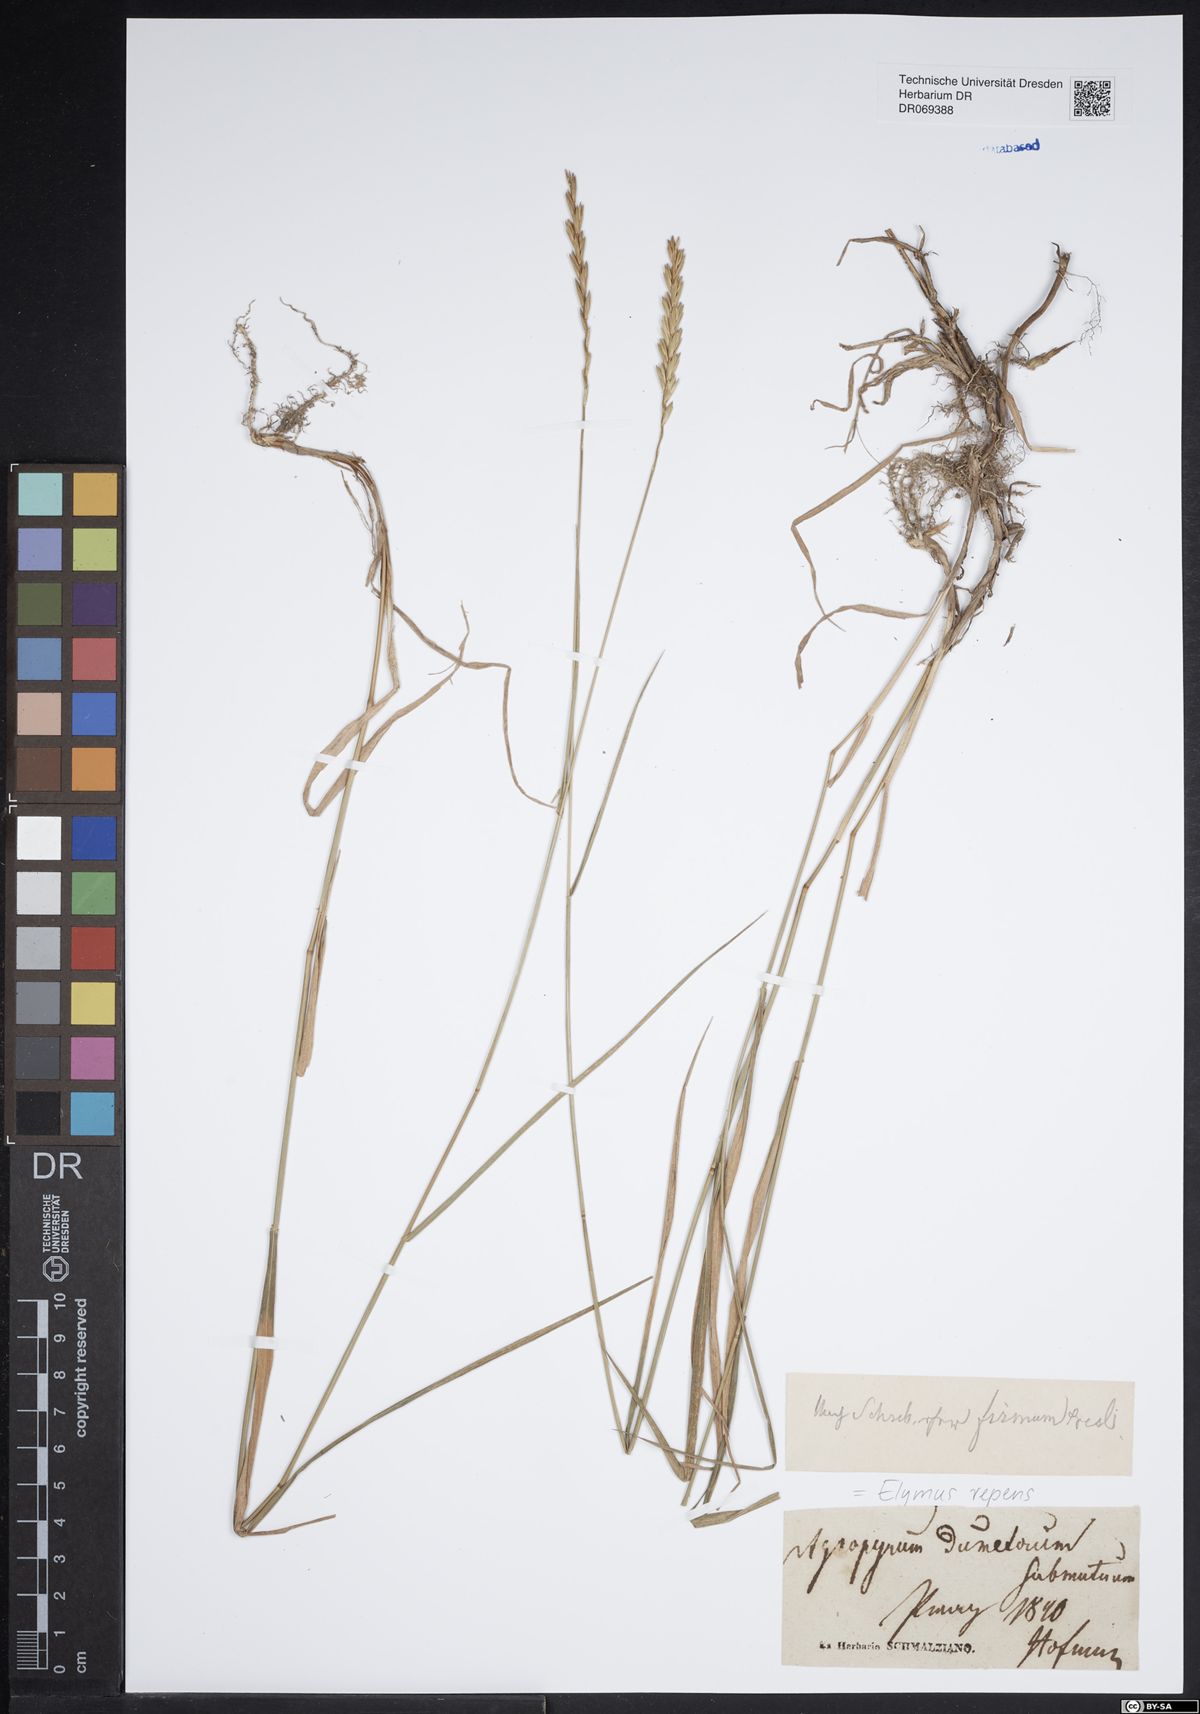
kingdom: Plantae
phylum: Tracheophyta
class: Liliopsida
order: Poales
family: Poaceae
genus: Elymus
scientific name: Elymus repens
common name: Quackgrass
